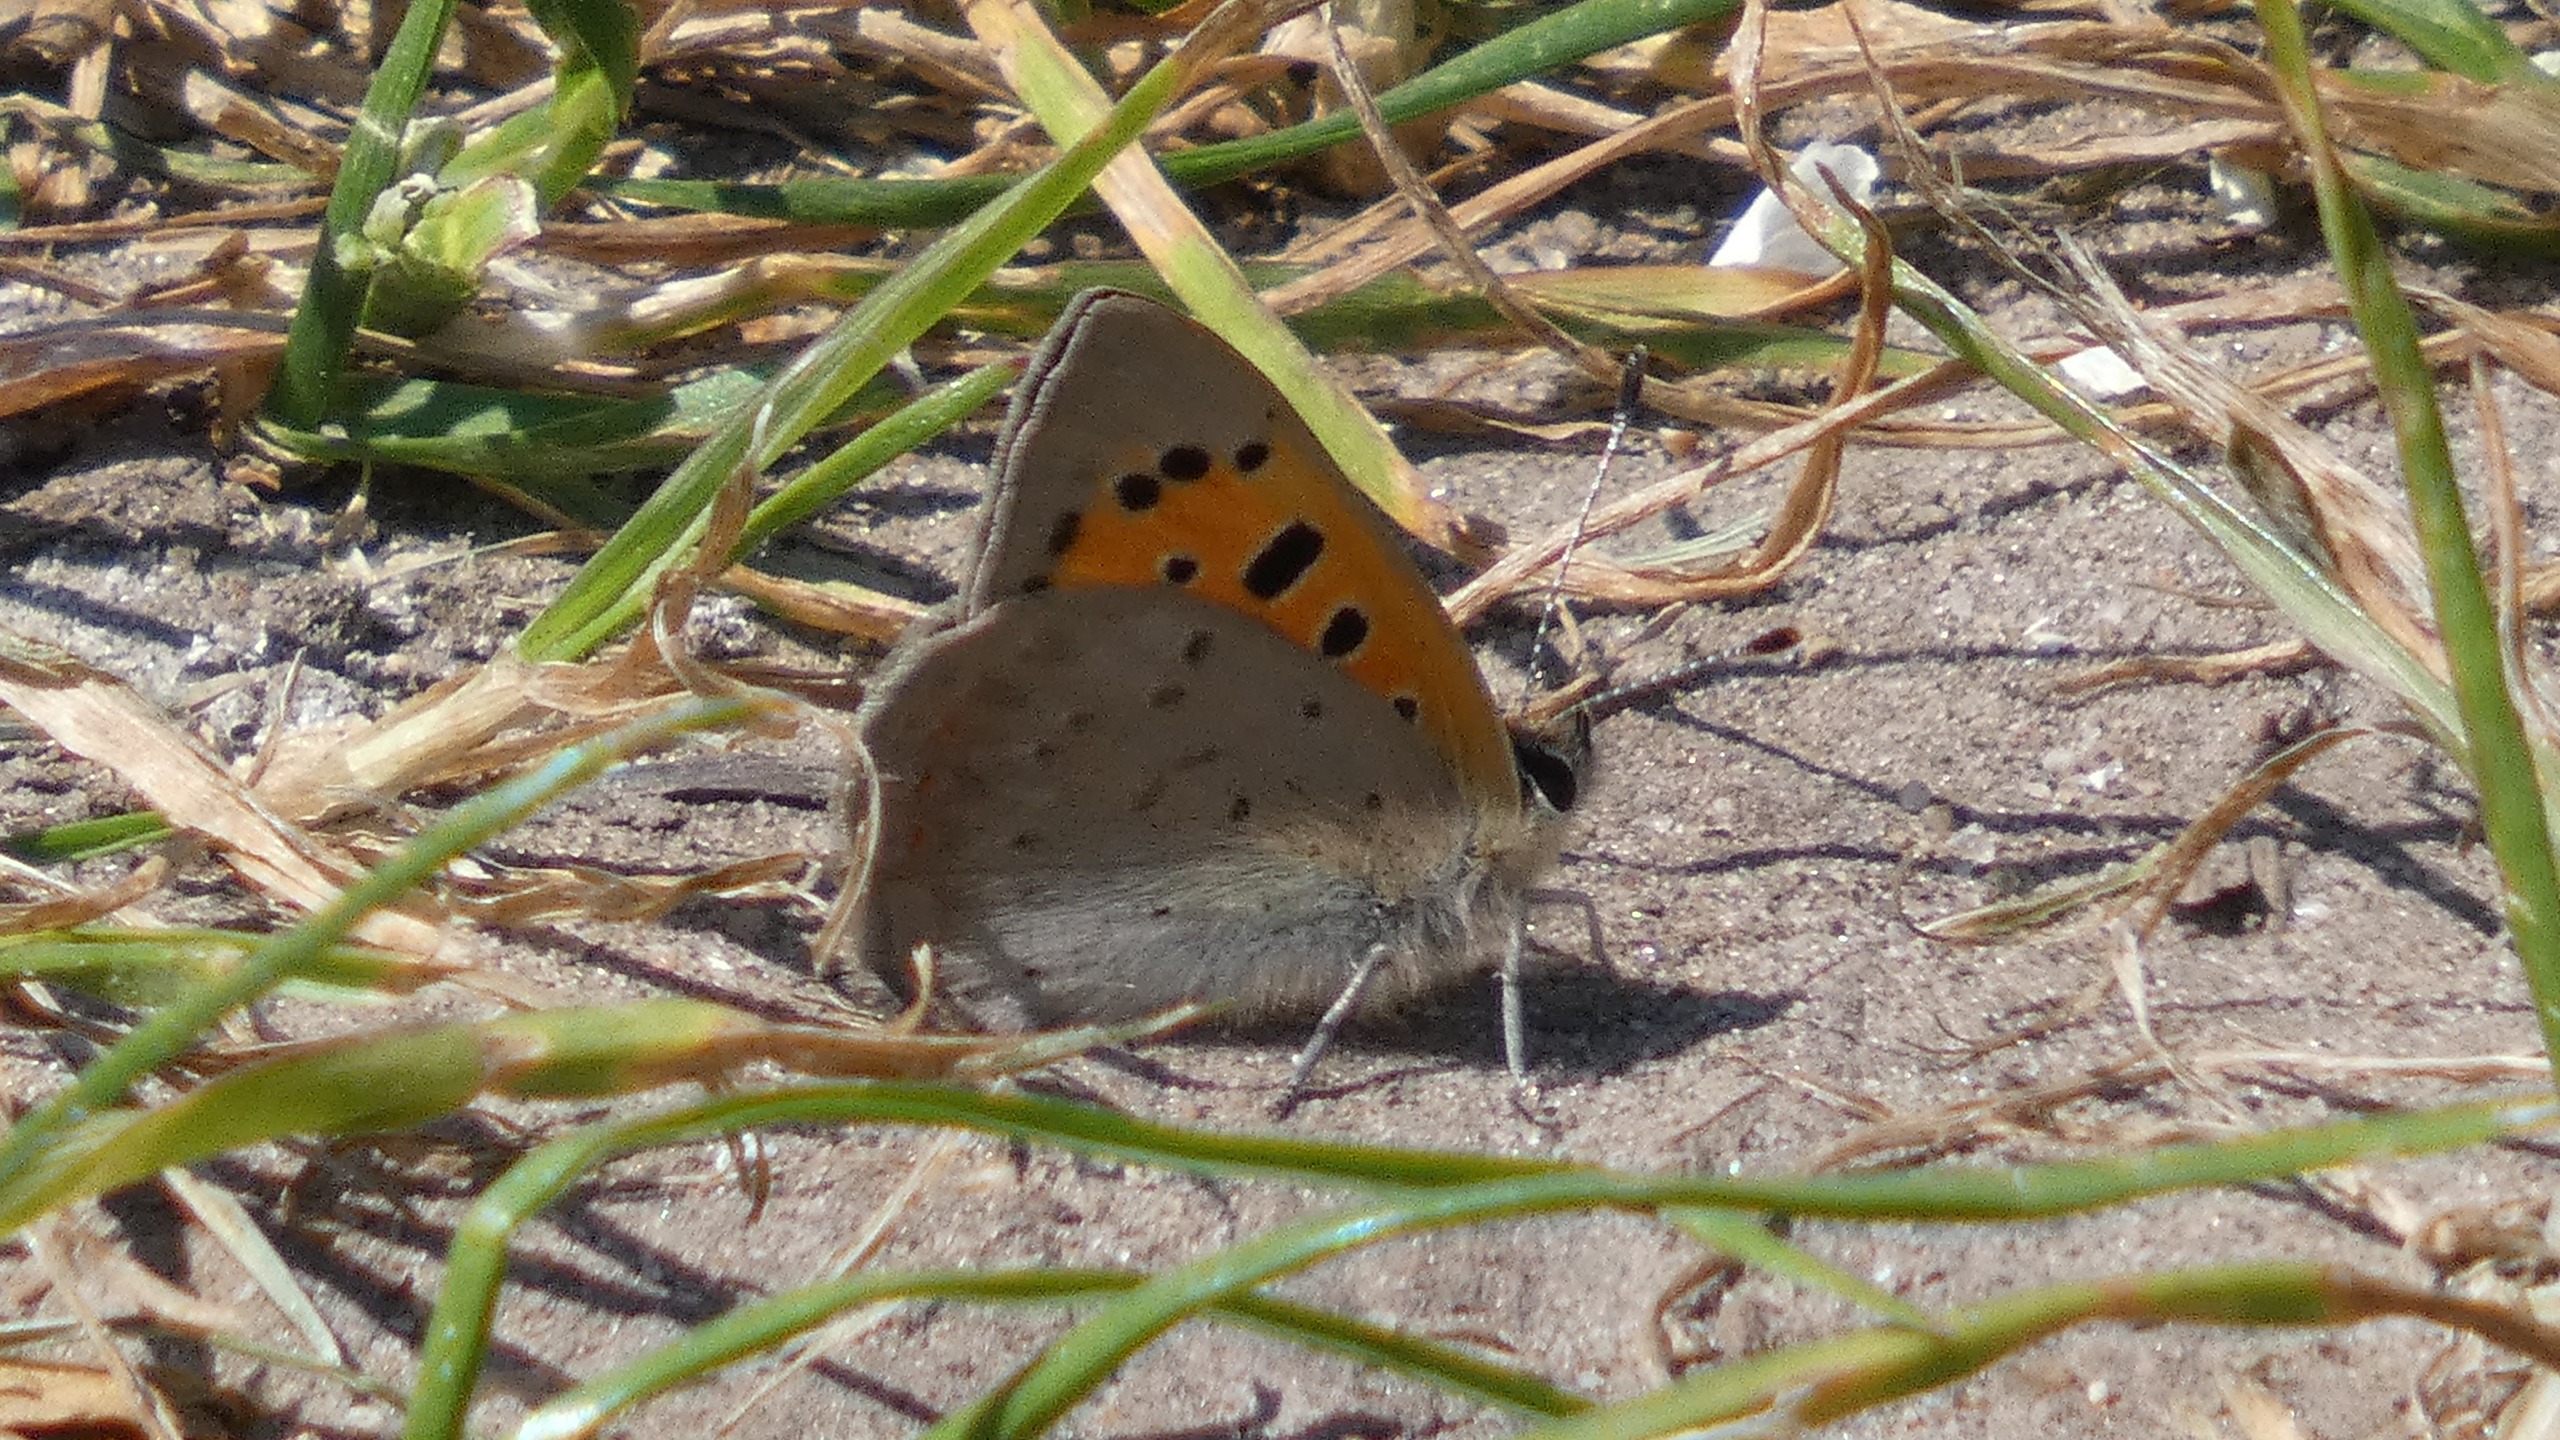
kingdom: Animalia
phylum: Arthropoda
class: Insecta
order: Lepidoptera
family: Lycaenidae
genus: Lycaena
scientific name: Lycaena phlaeas
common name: Lille ildfugl
